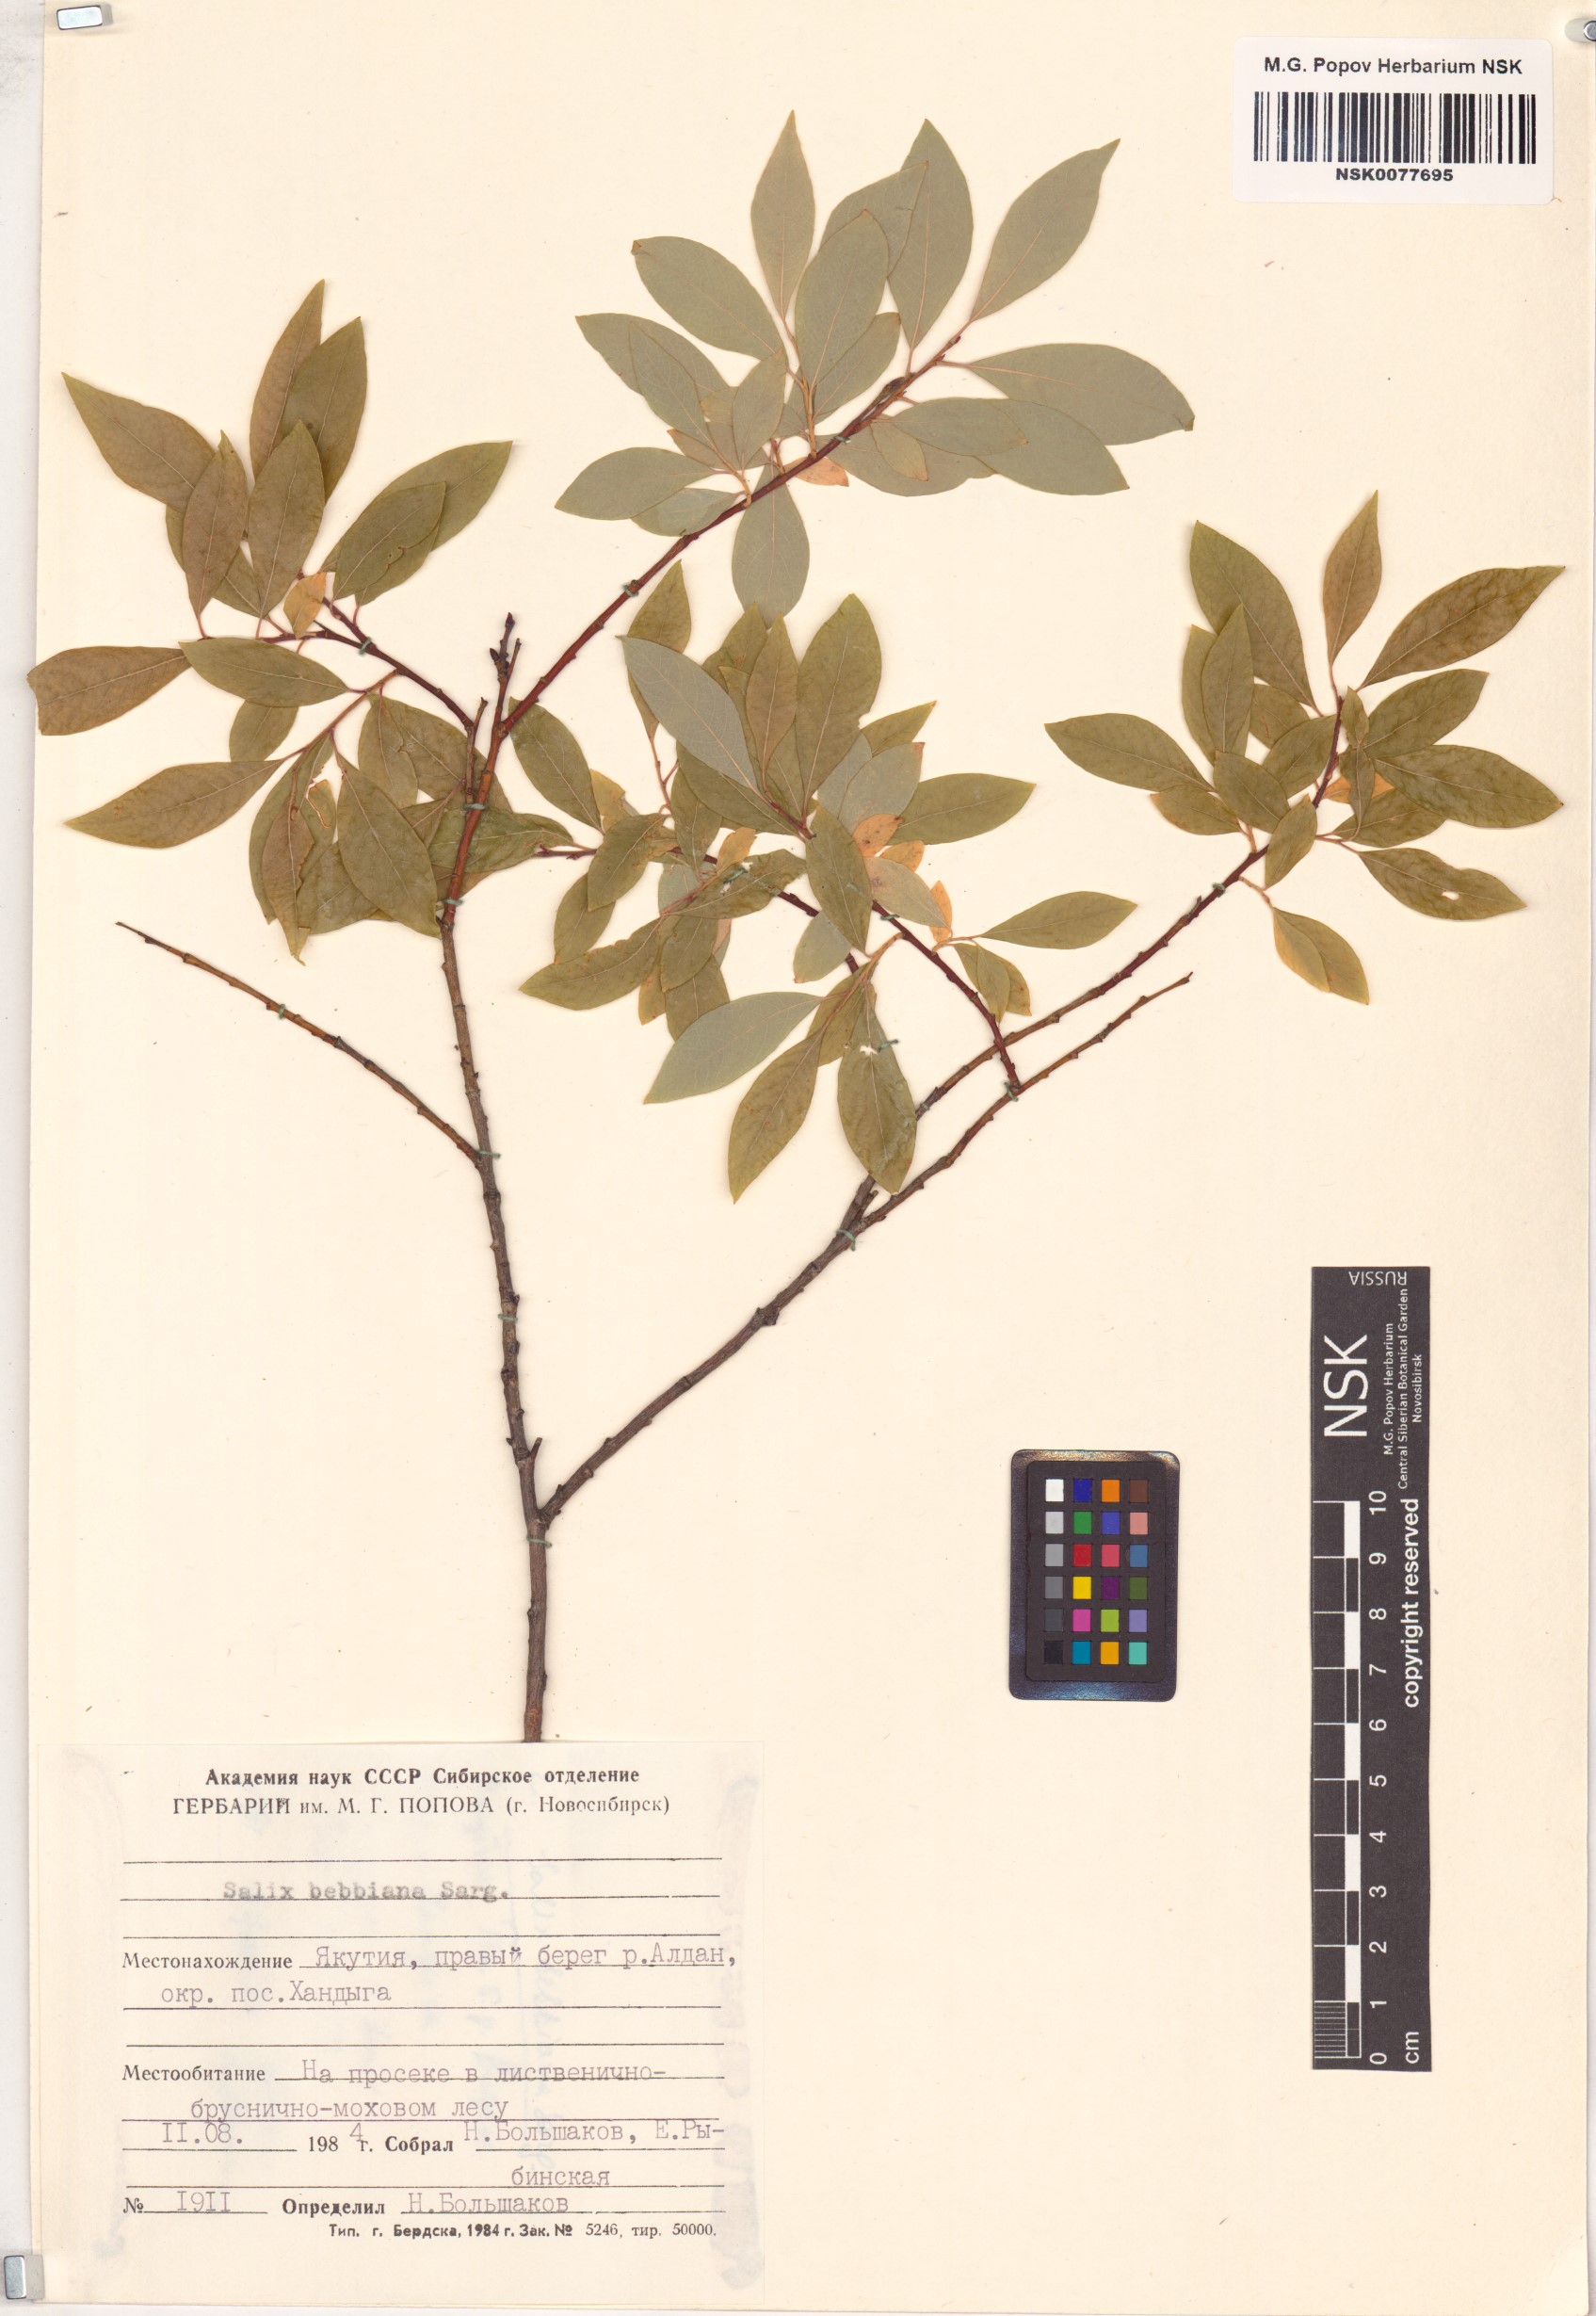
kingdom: Plantae
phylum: Tracheophyta
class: Magnoliopsida
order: Malpighiales
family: Salicaceae
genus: Salix
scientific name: Salix bebbiana
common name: Bebb's willow
